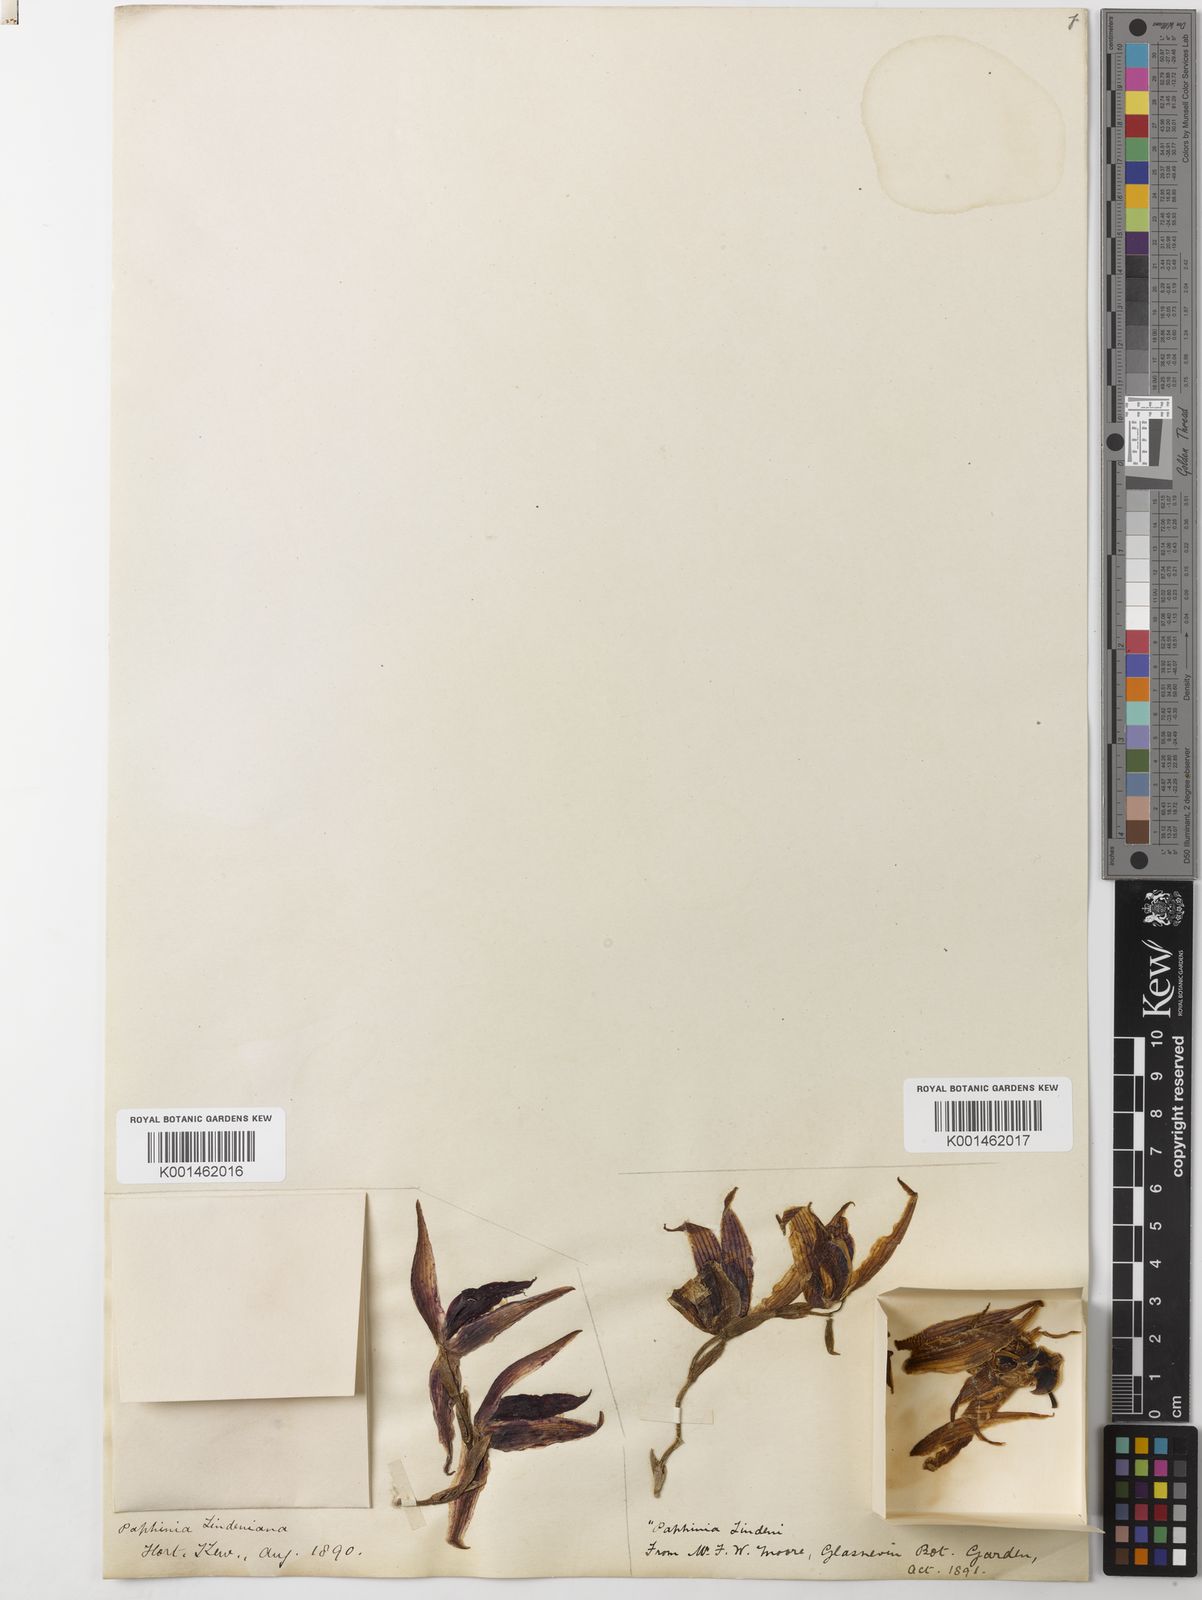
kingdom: Plantae
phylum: Tracheophyta
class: Liliopsida
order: Asparagales
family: Orchidaceae
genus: Paphinia
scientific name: Paphinia lindeniana
